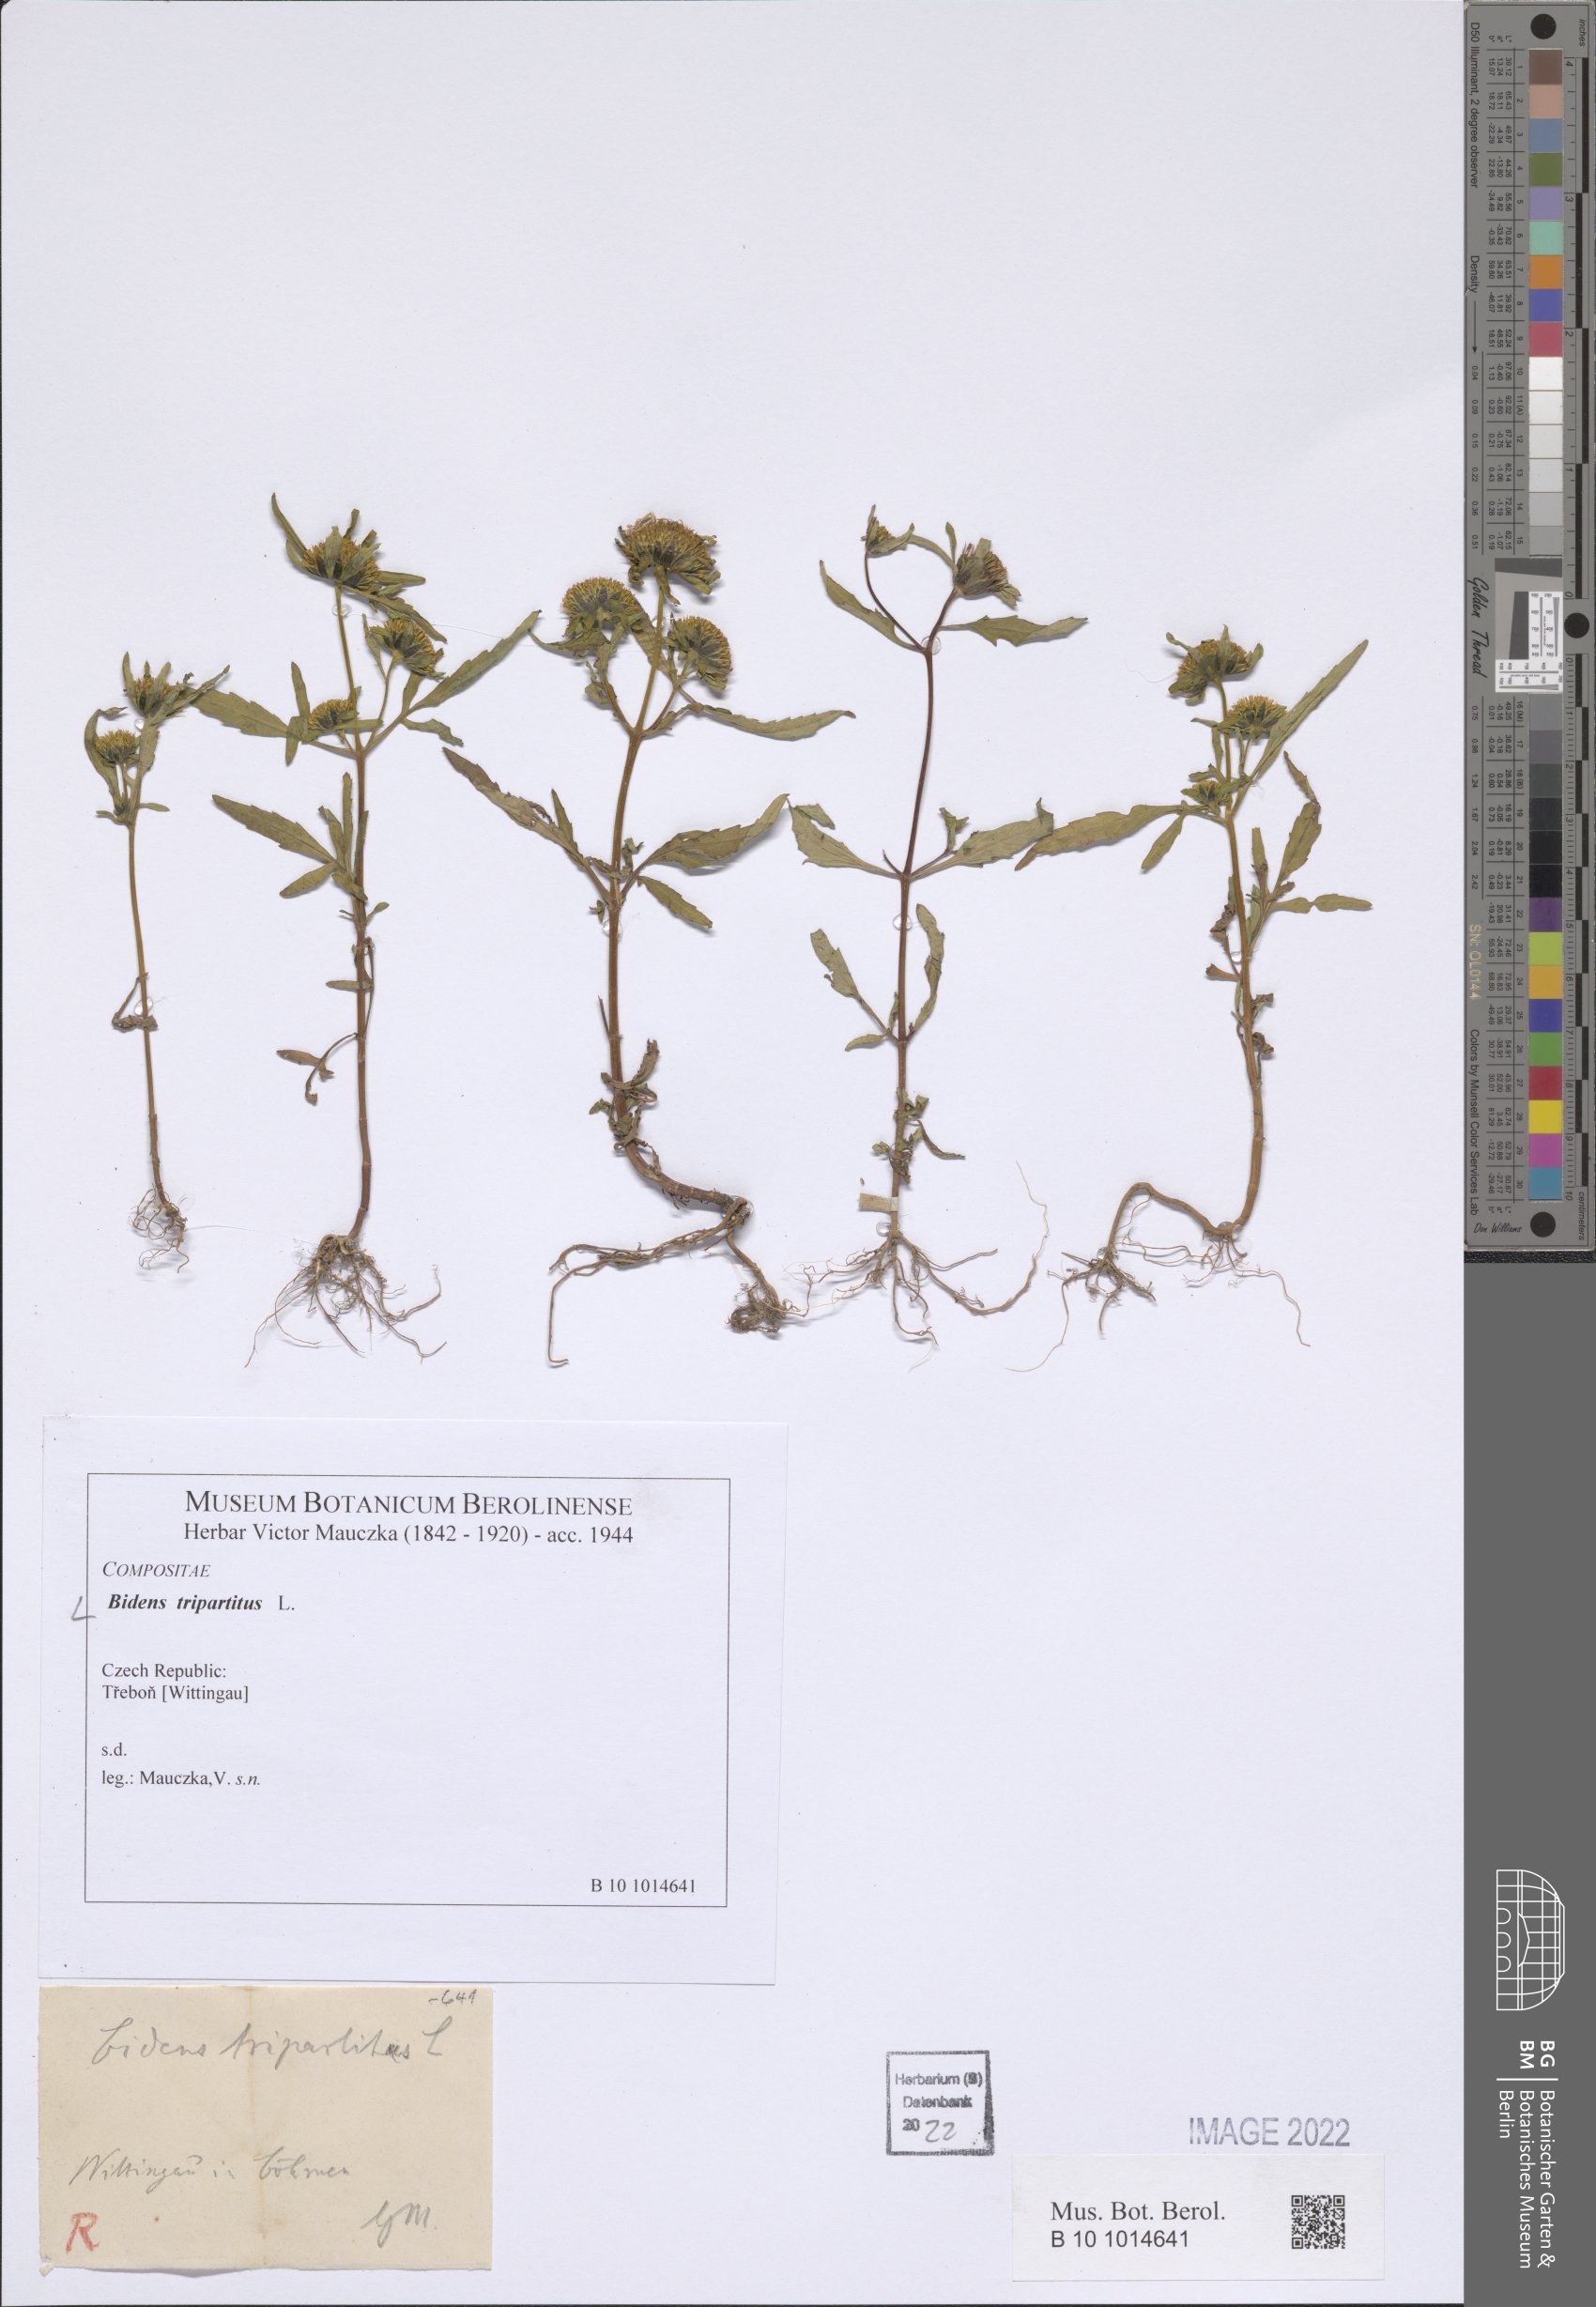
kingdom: Plantae
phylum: Tracheophyta
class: Magnoliopsida
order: Asterales
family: Asteraceae
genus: Bidens
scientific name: Bidens tripartita
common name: Trifid bur-marigold
